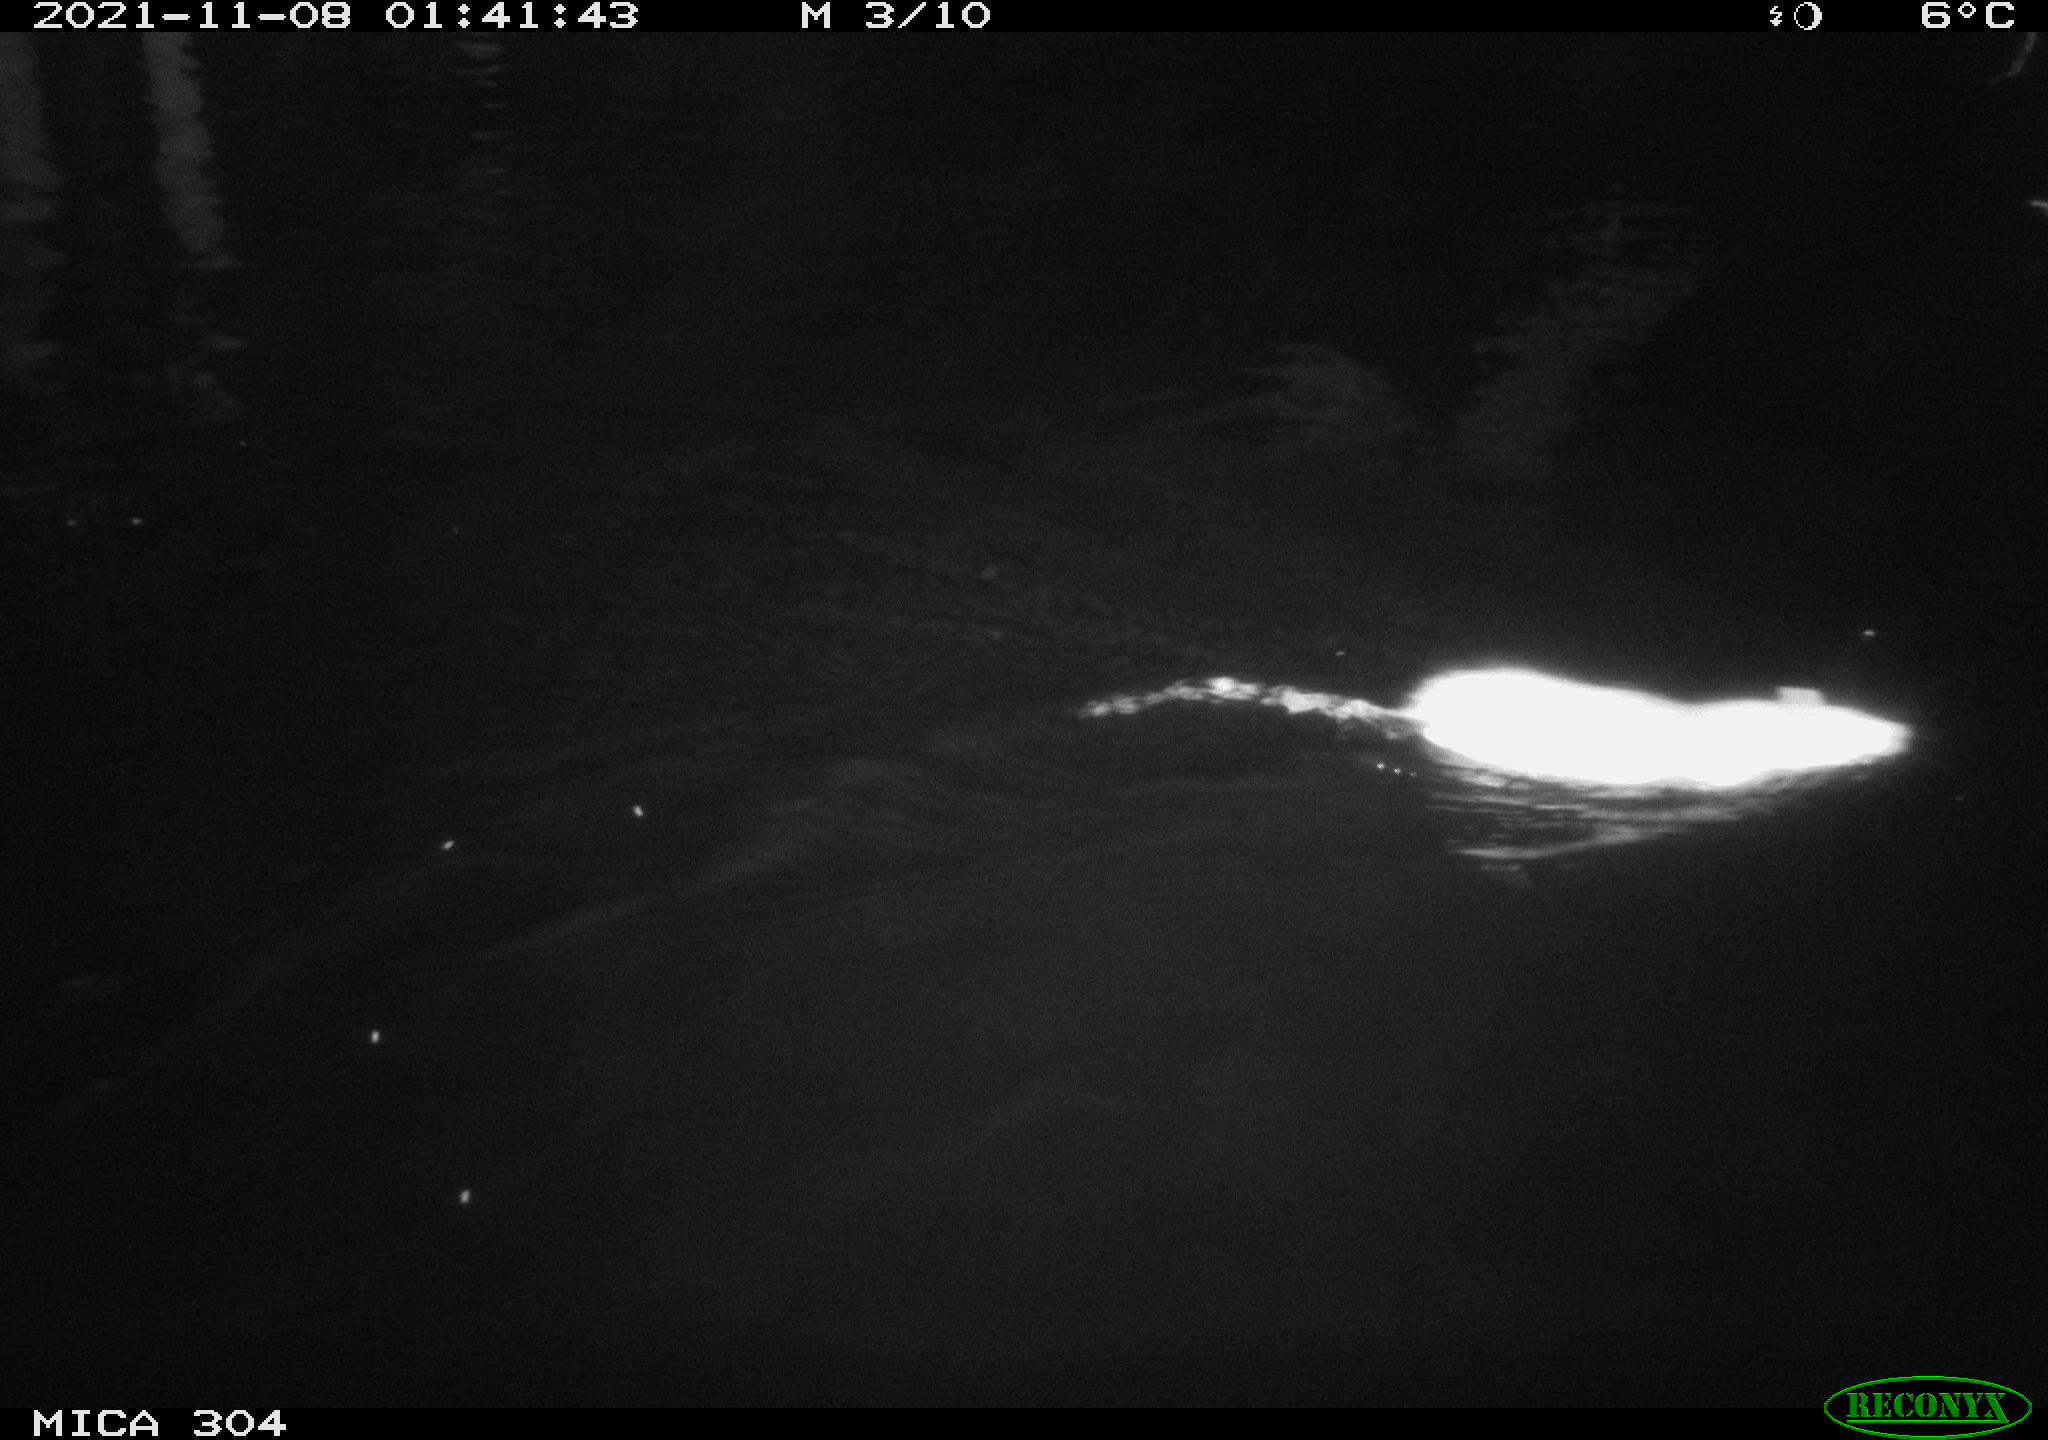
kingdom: Animalia
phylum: Chordata
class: Mammalia
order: Rodentia
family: Muridae
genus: Rattus
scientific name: Rattus norvegicus
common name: Brown rat
